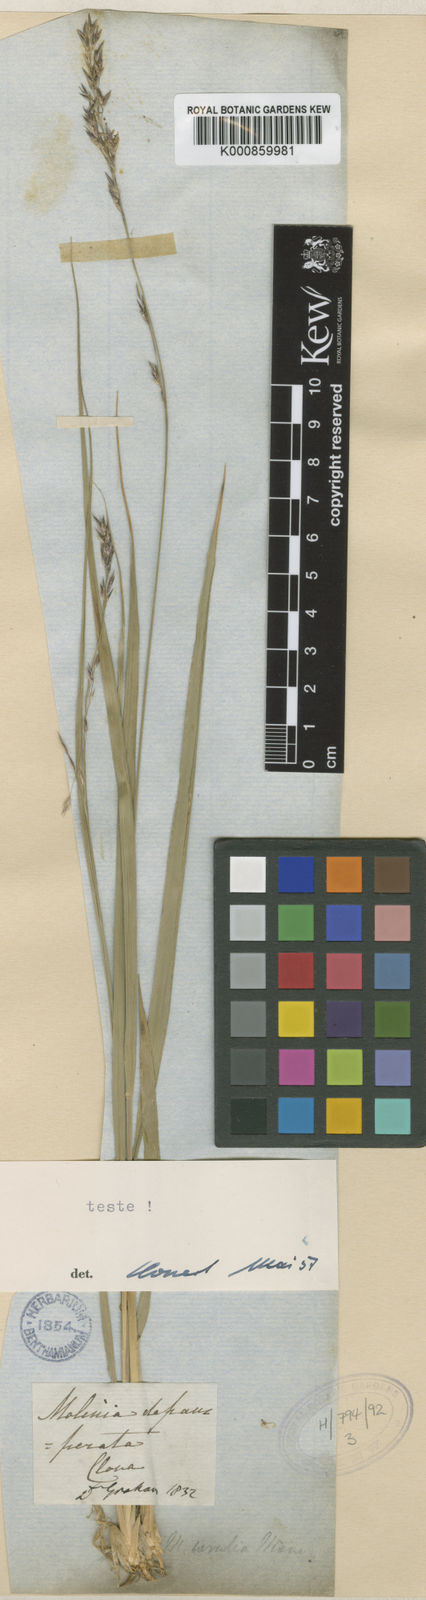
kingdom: Plantae
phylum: Tracheophyta
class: Liliopsida
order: Poales
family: Poaceae
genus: Molinia
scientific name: Molinia caerulea
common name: Purple moor-grass
